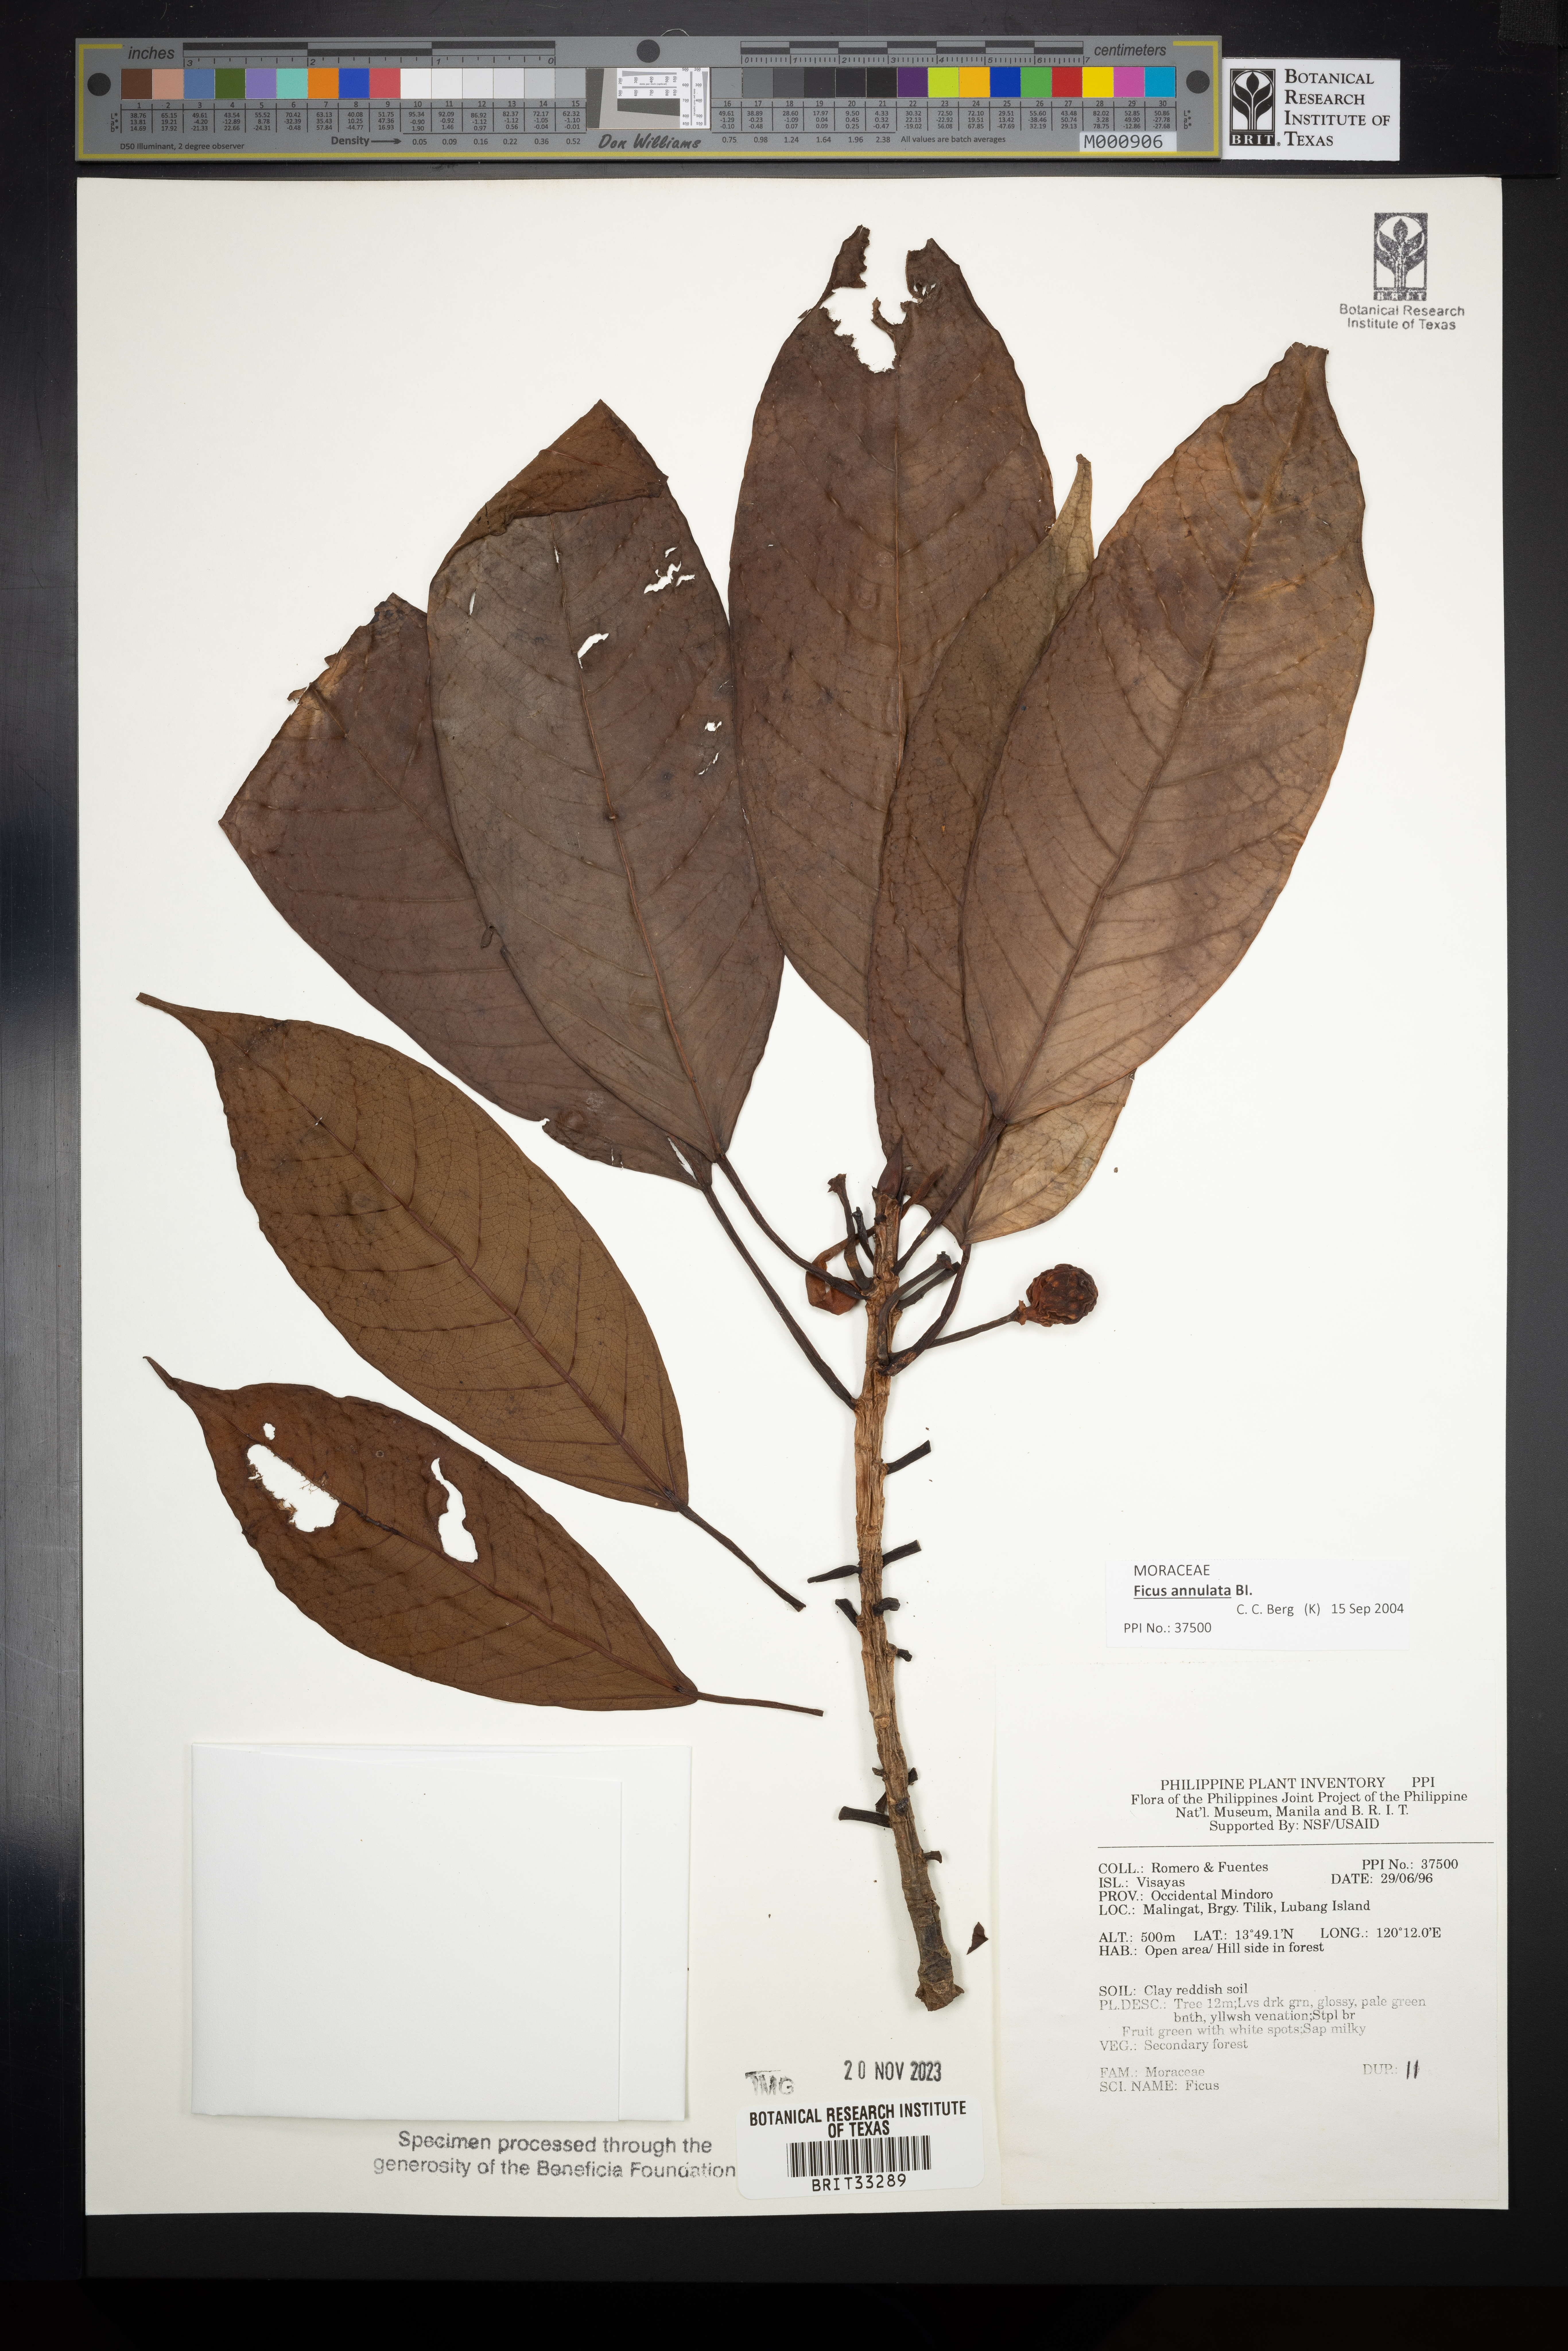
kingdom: Plantae
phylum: Tracheophyta
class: Magnoliopsida
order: Rosales
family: Moraceae
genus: Ficus
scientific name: Ficus
